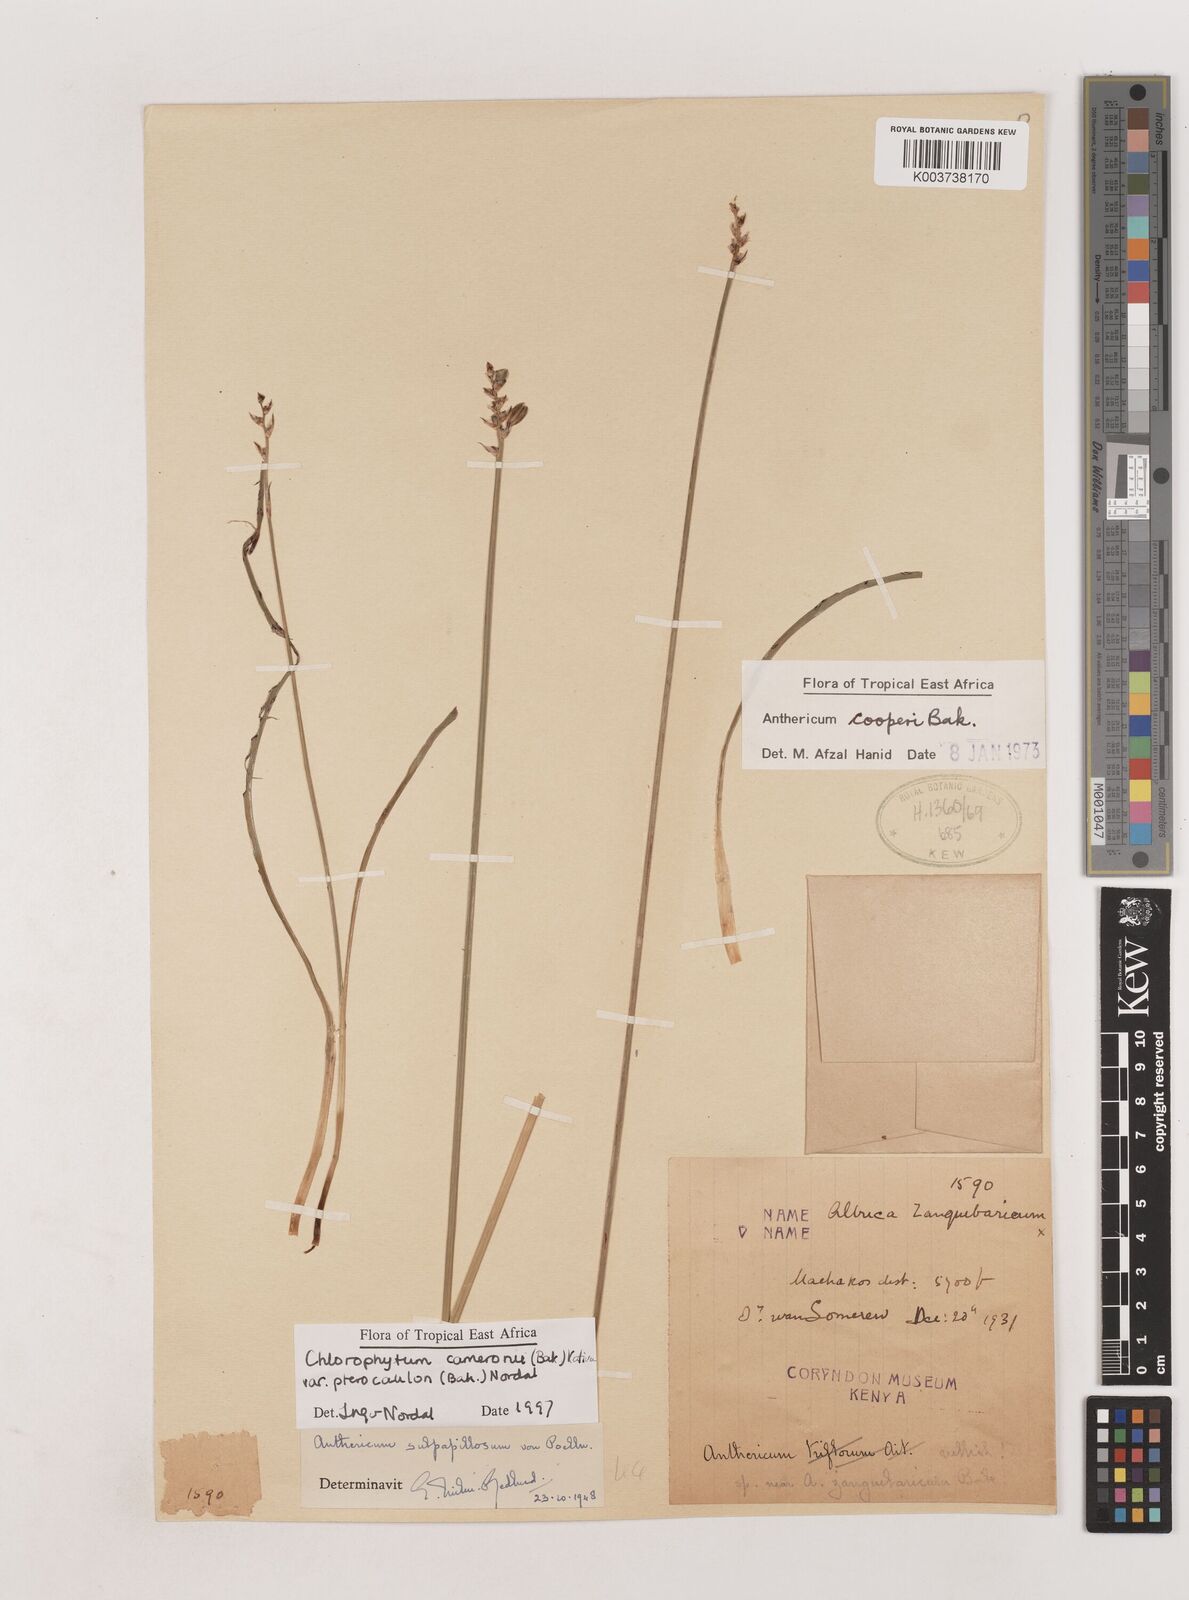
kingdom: Plantae
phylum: Tracheophyta
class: Liliopsida
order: Asparagales
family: Asparagaceae
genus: Chlorophytum
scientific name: Chlorophytum cameronii
